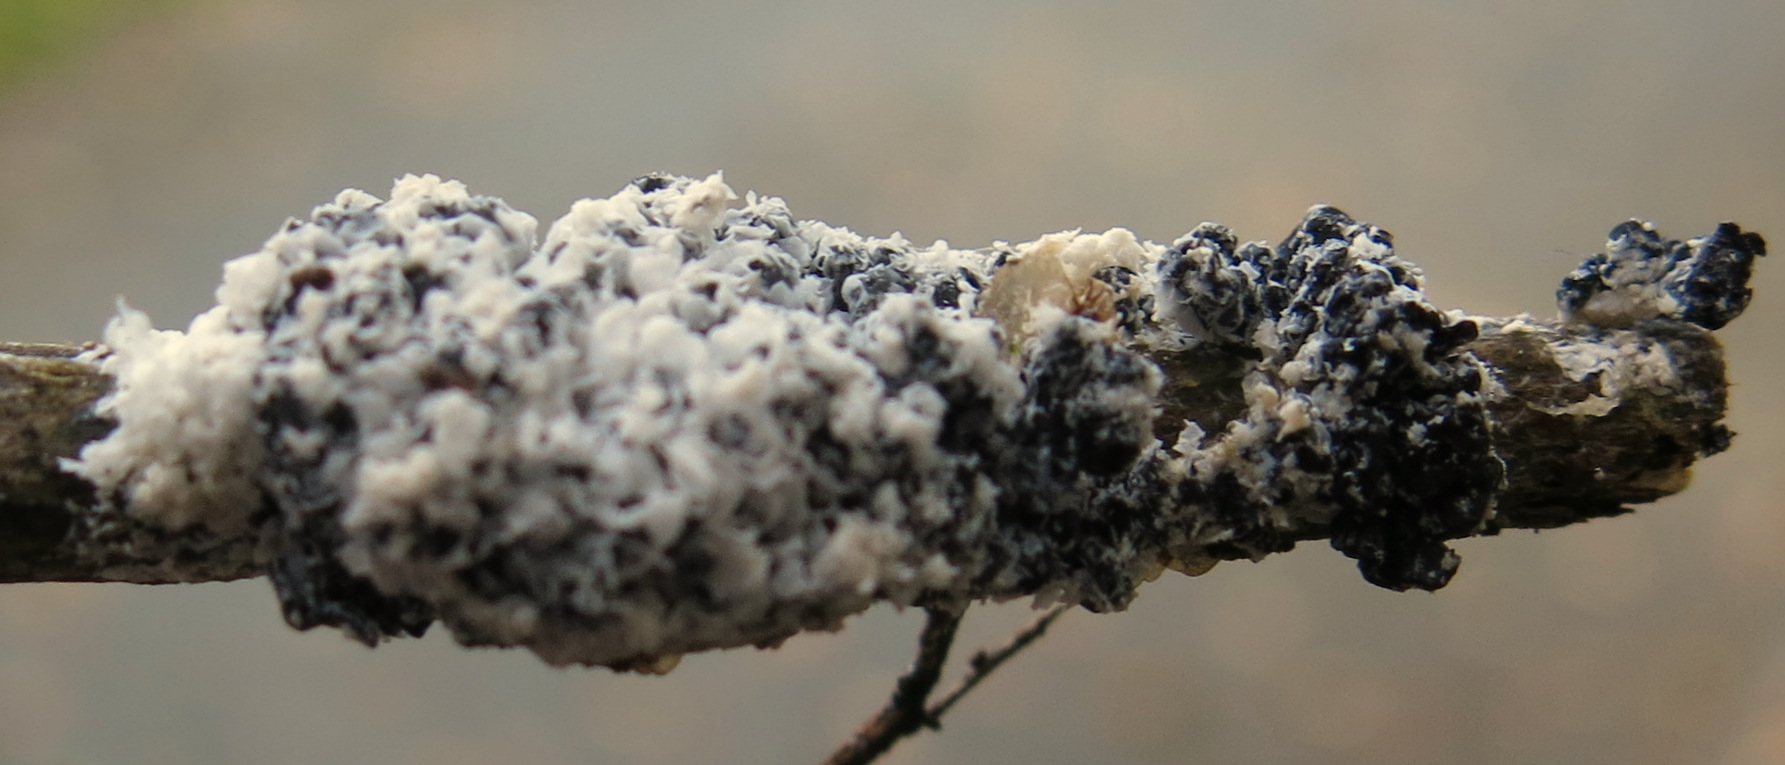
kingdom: Protozoa
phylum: Mycetozoa
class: Myxomycetes
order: Physarales
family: Physaraceae
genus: Didymium
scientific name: Didymium
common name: urteskum
